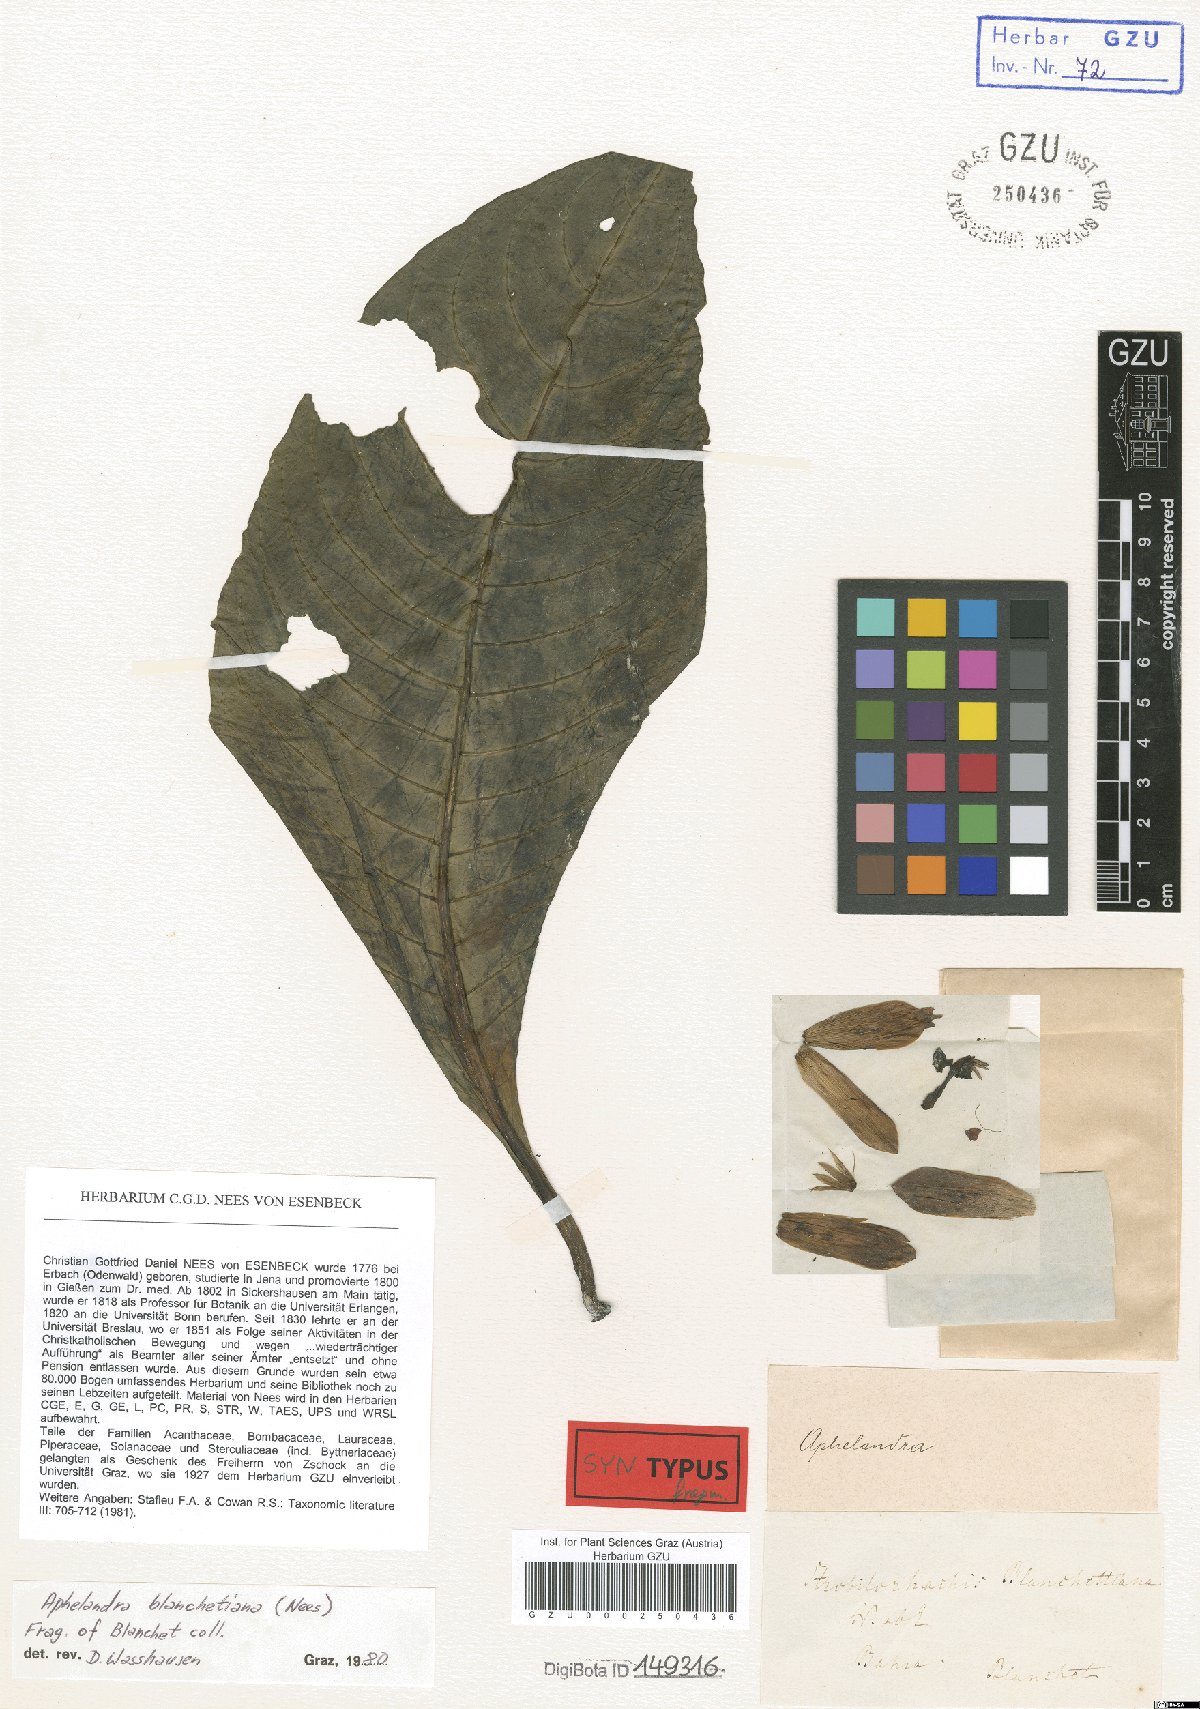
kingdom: Plantae
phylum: Tracheophyta
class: Magnoliopsida
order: Lamiales
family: Acanthaceae
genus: Aphelandra
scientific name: Aphelandra blanchetiana
